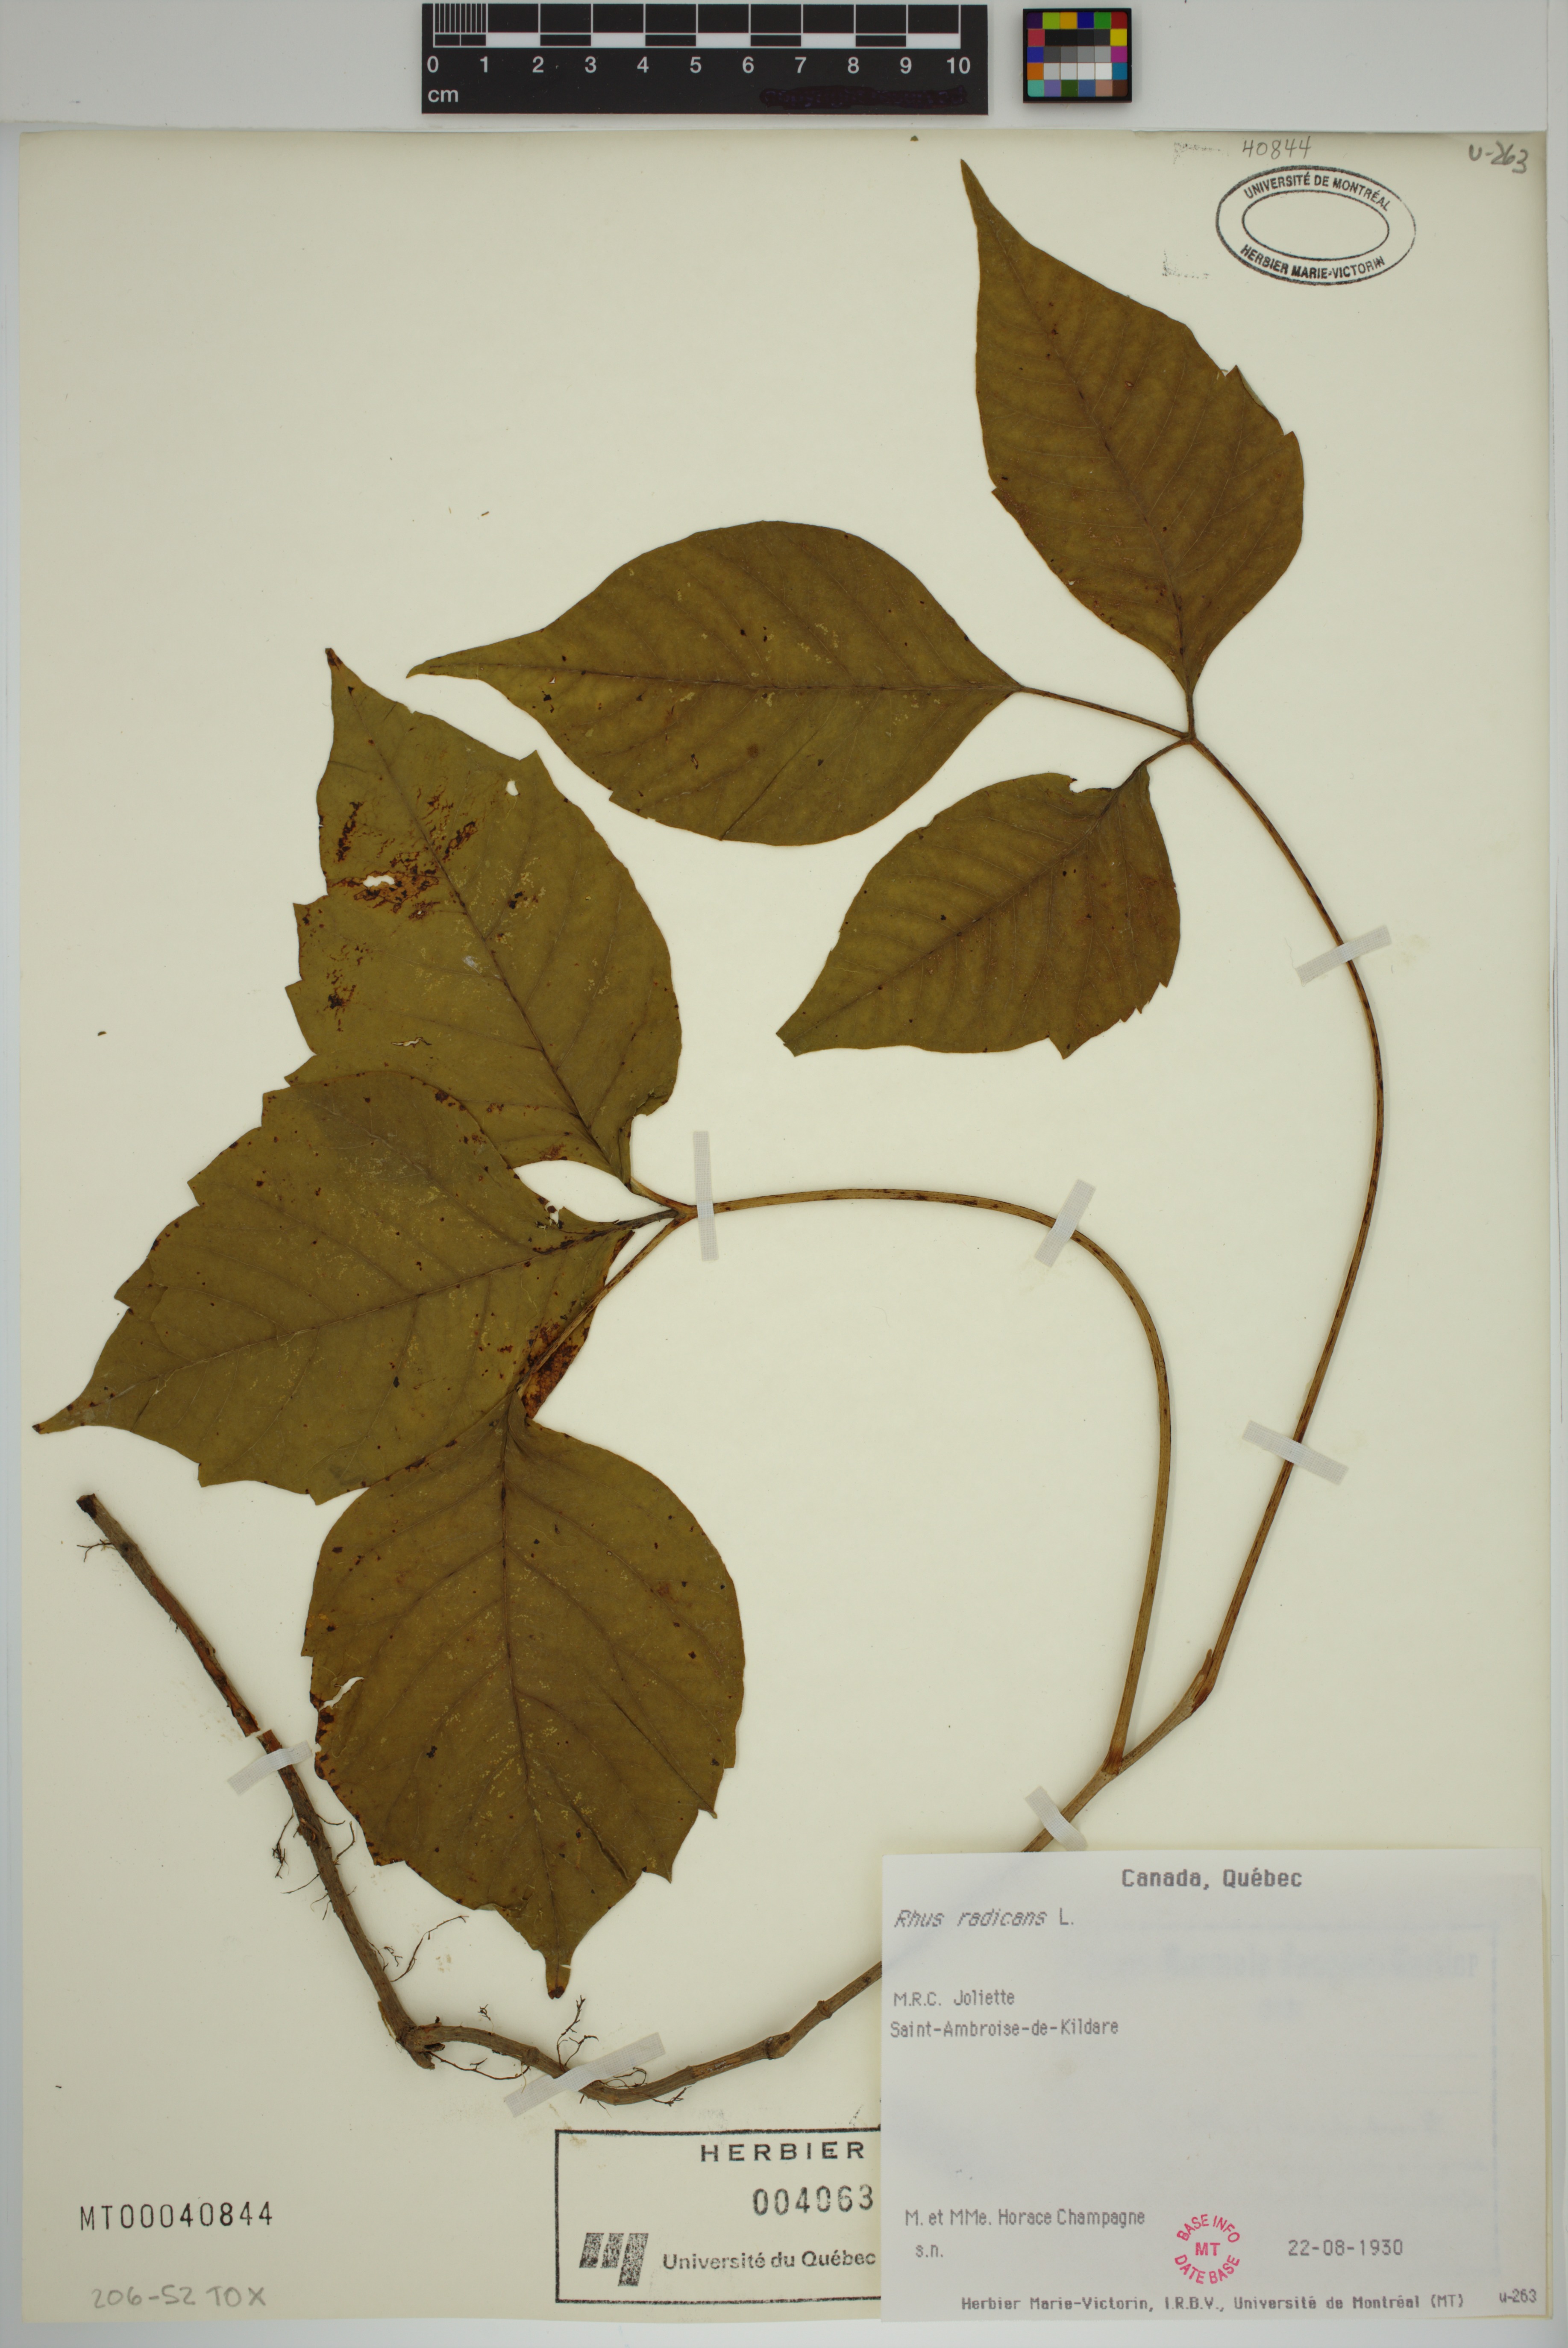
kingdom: Plantae
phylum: Tracheophyta
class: Magnoliopsida
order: Sapindales
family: Anacardiaceae
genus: Toxicodendron
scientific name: Toxicodendron radicans
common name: Poison ivy
